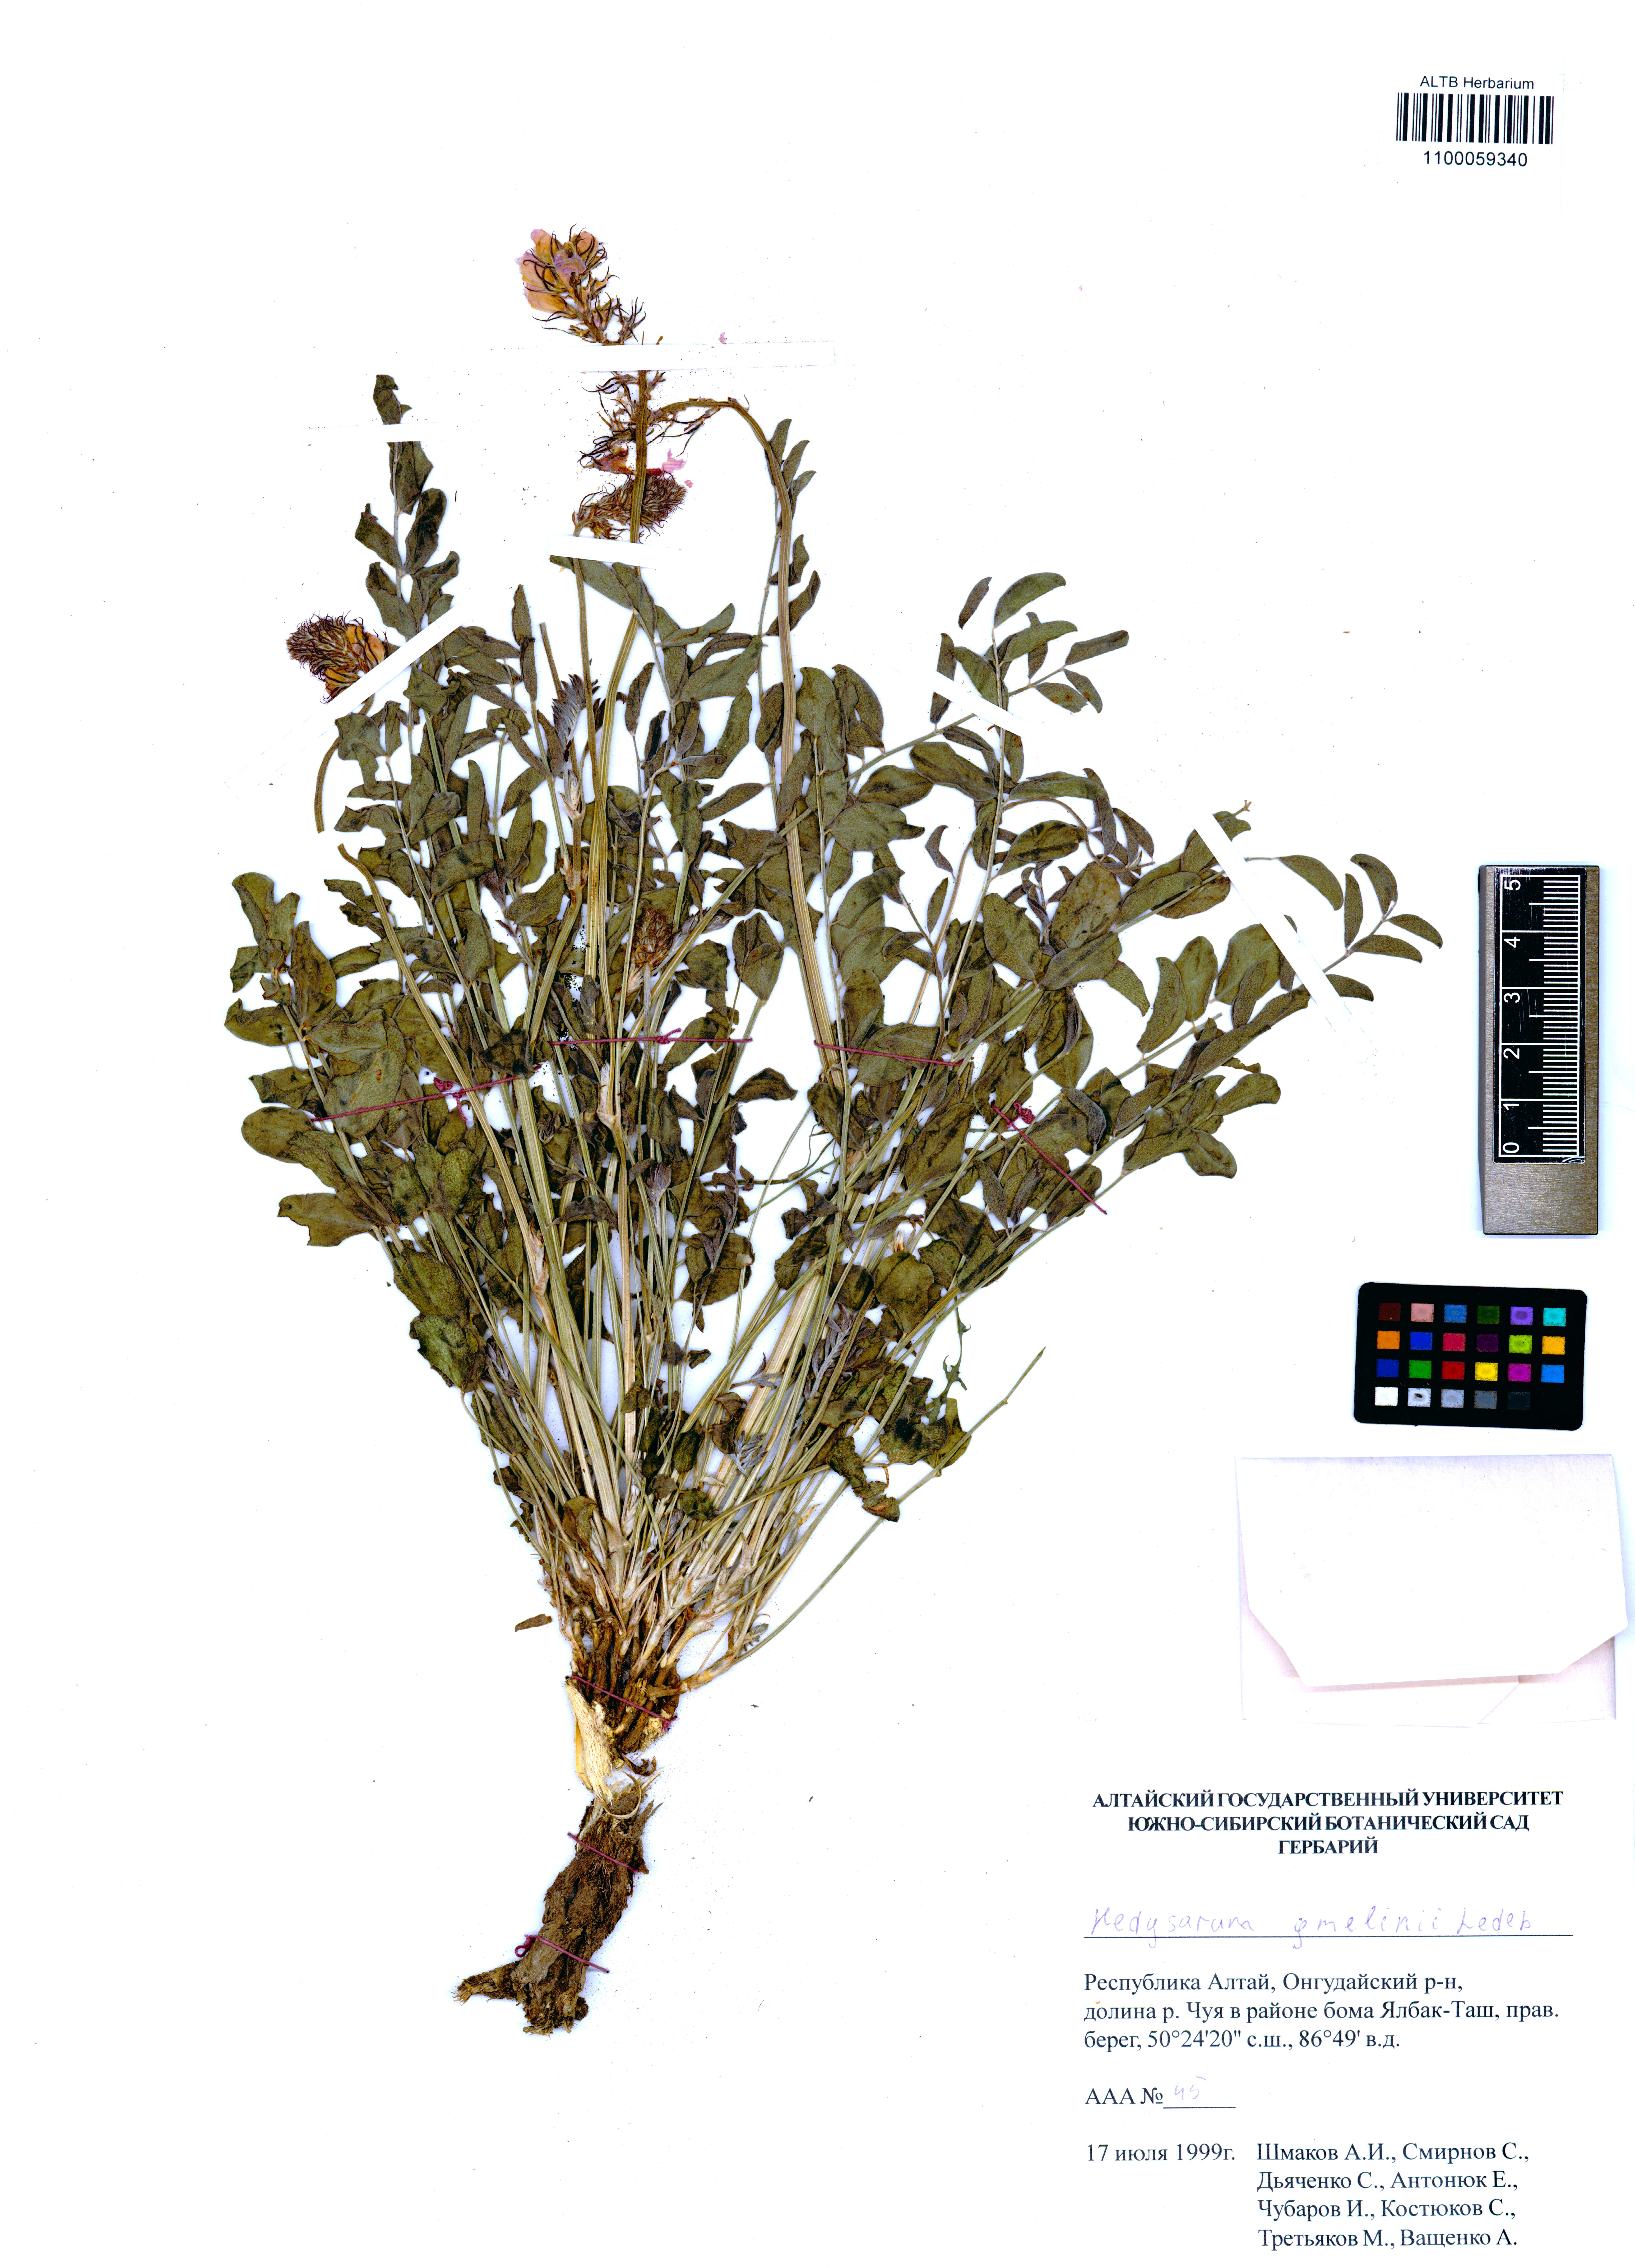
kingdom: Plantae
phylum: Tracheophyta
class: Magnoliopsida
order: Fabales
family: Fabaceae
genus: Hedysarum
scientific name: Hedysarum gmelinii
